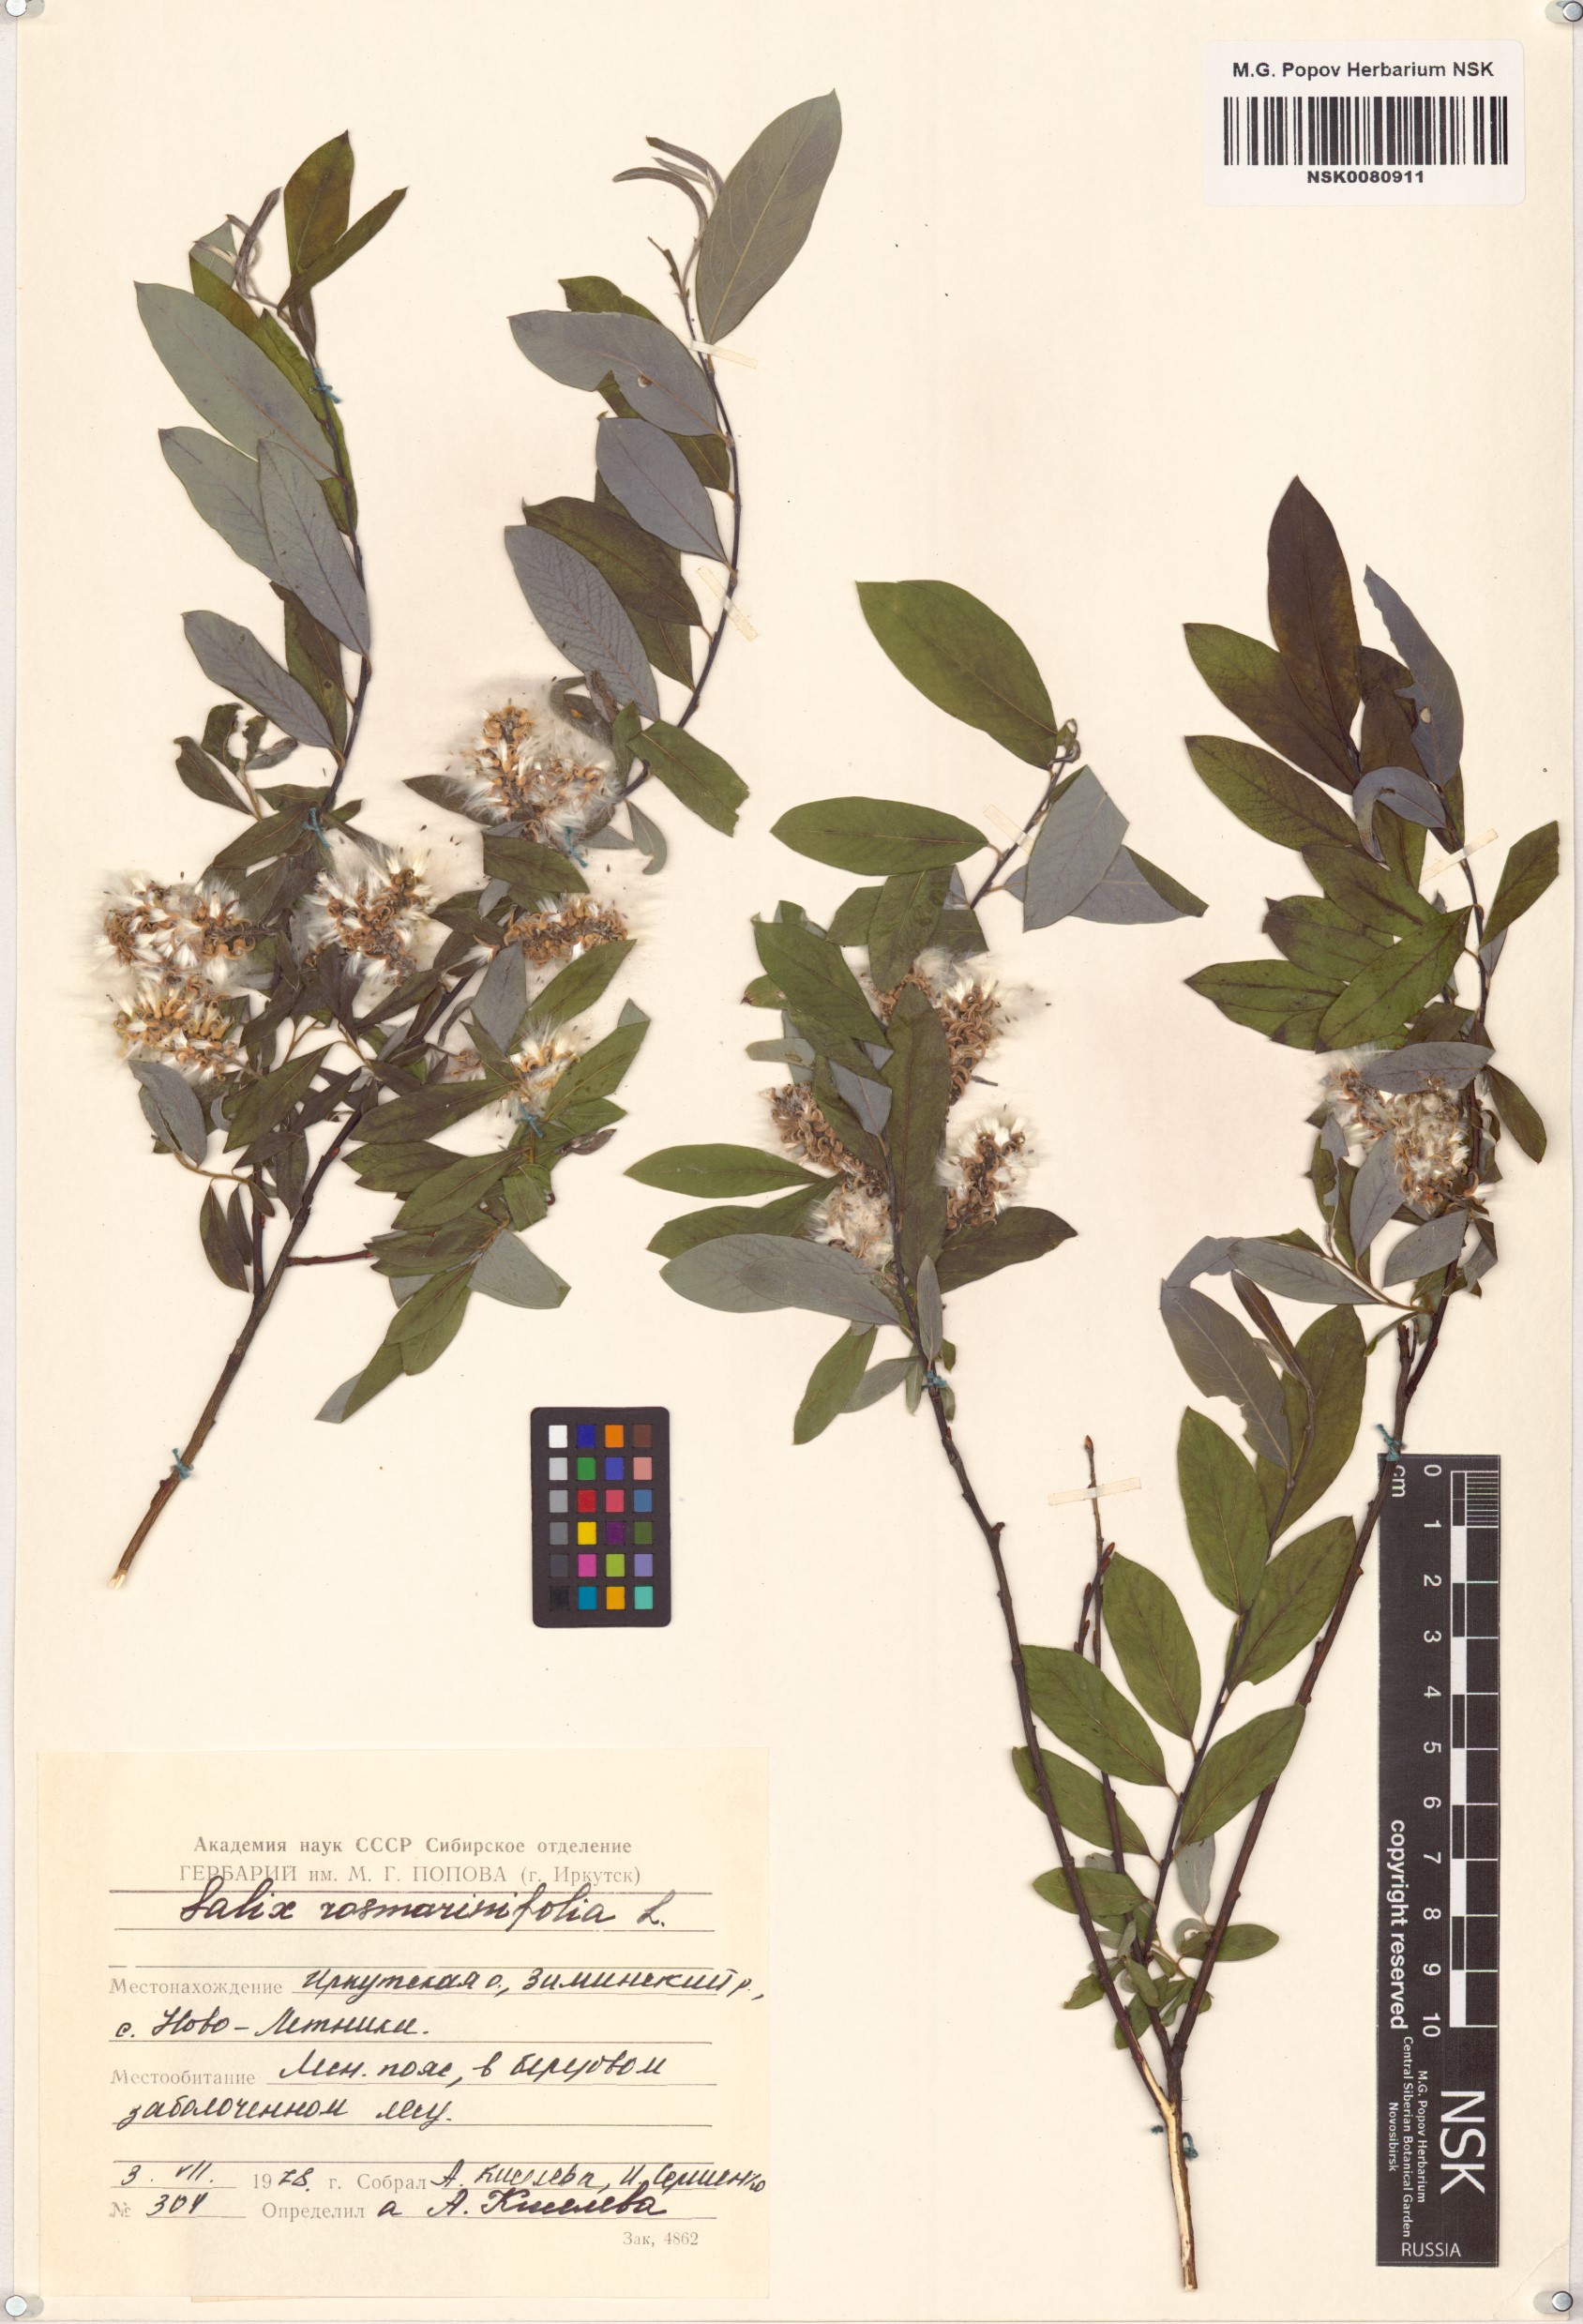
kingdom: Plantae
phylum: Tracheophyta
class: Magnoliopsida
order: Malpighiales
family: Salicaceae
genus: Salix
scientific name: Salix rosmarinifolia
